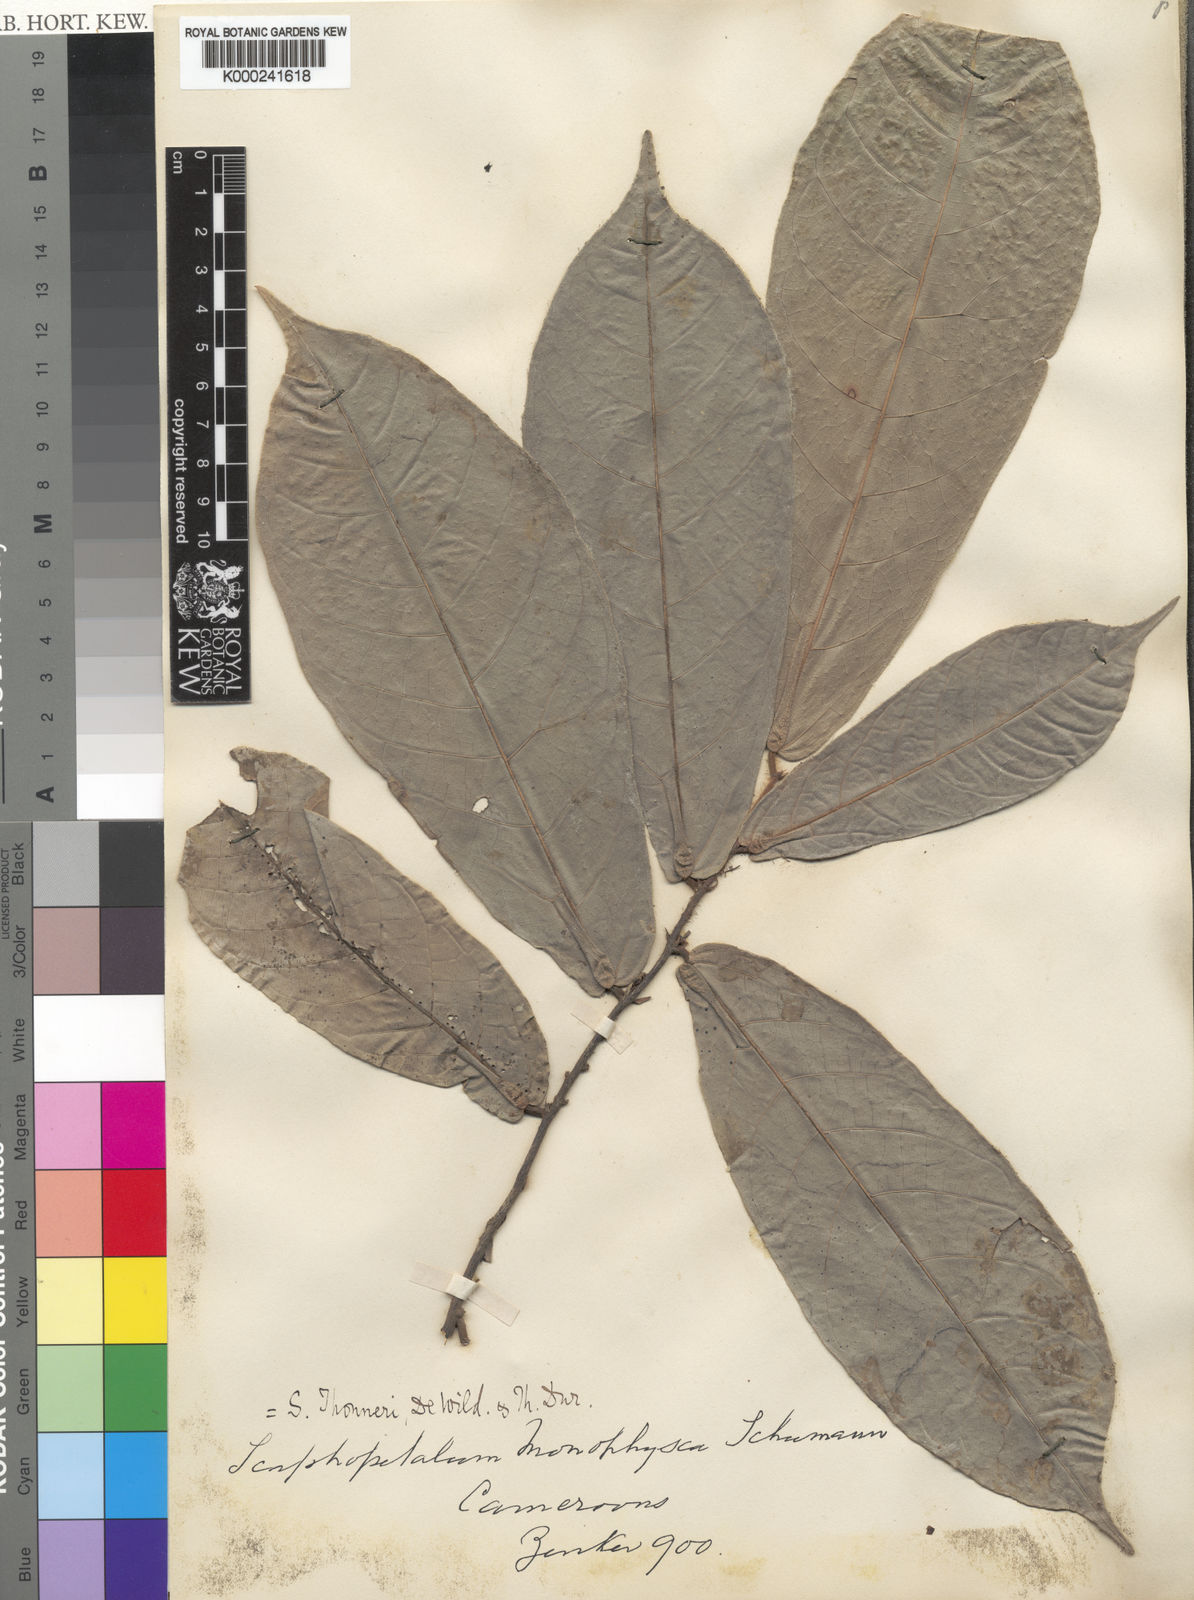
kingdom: Plantae
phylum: Tracheophyta
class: Magnoliopsida
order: Malvales
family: Malvaceae
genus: Scaphopetalum
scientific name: Scaphopetalum thonneri
